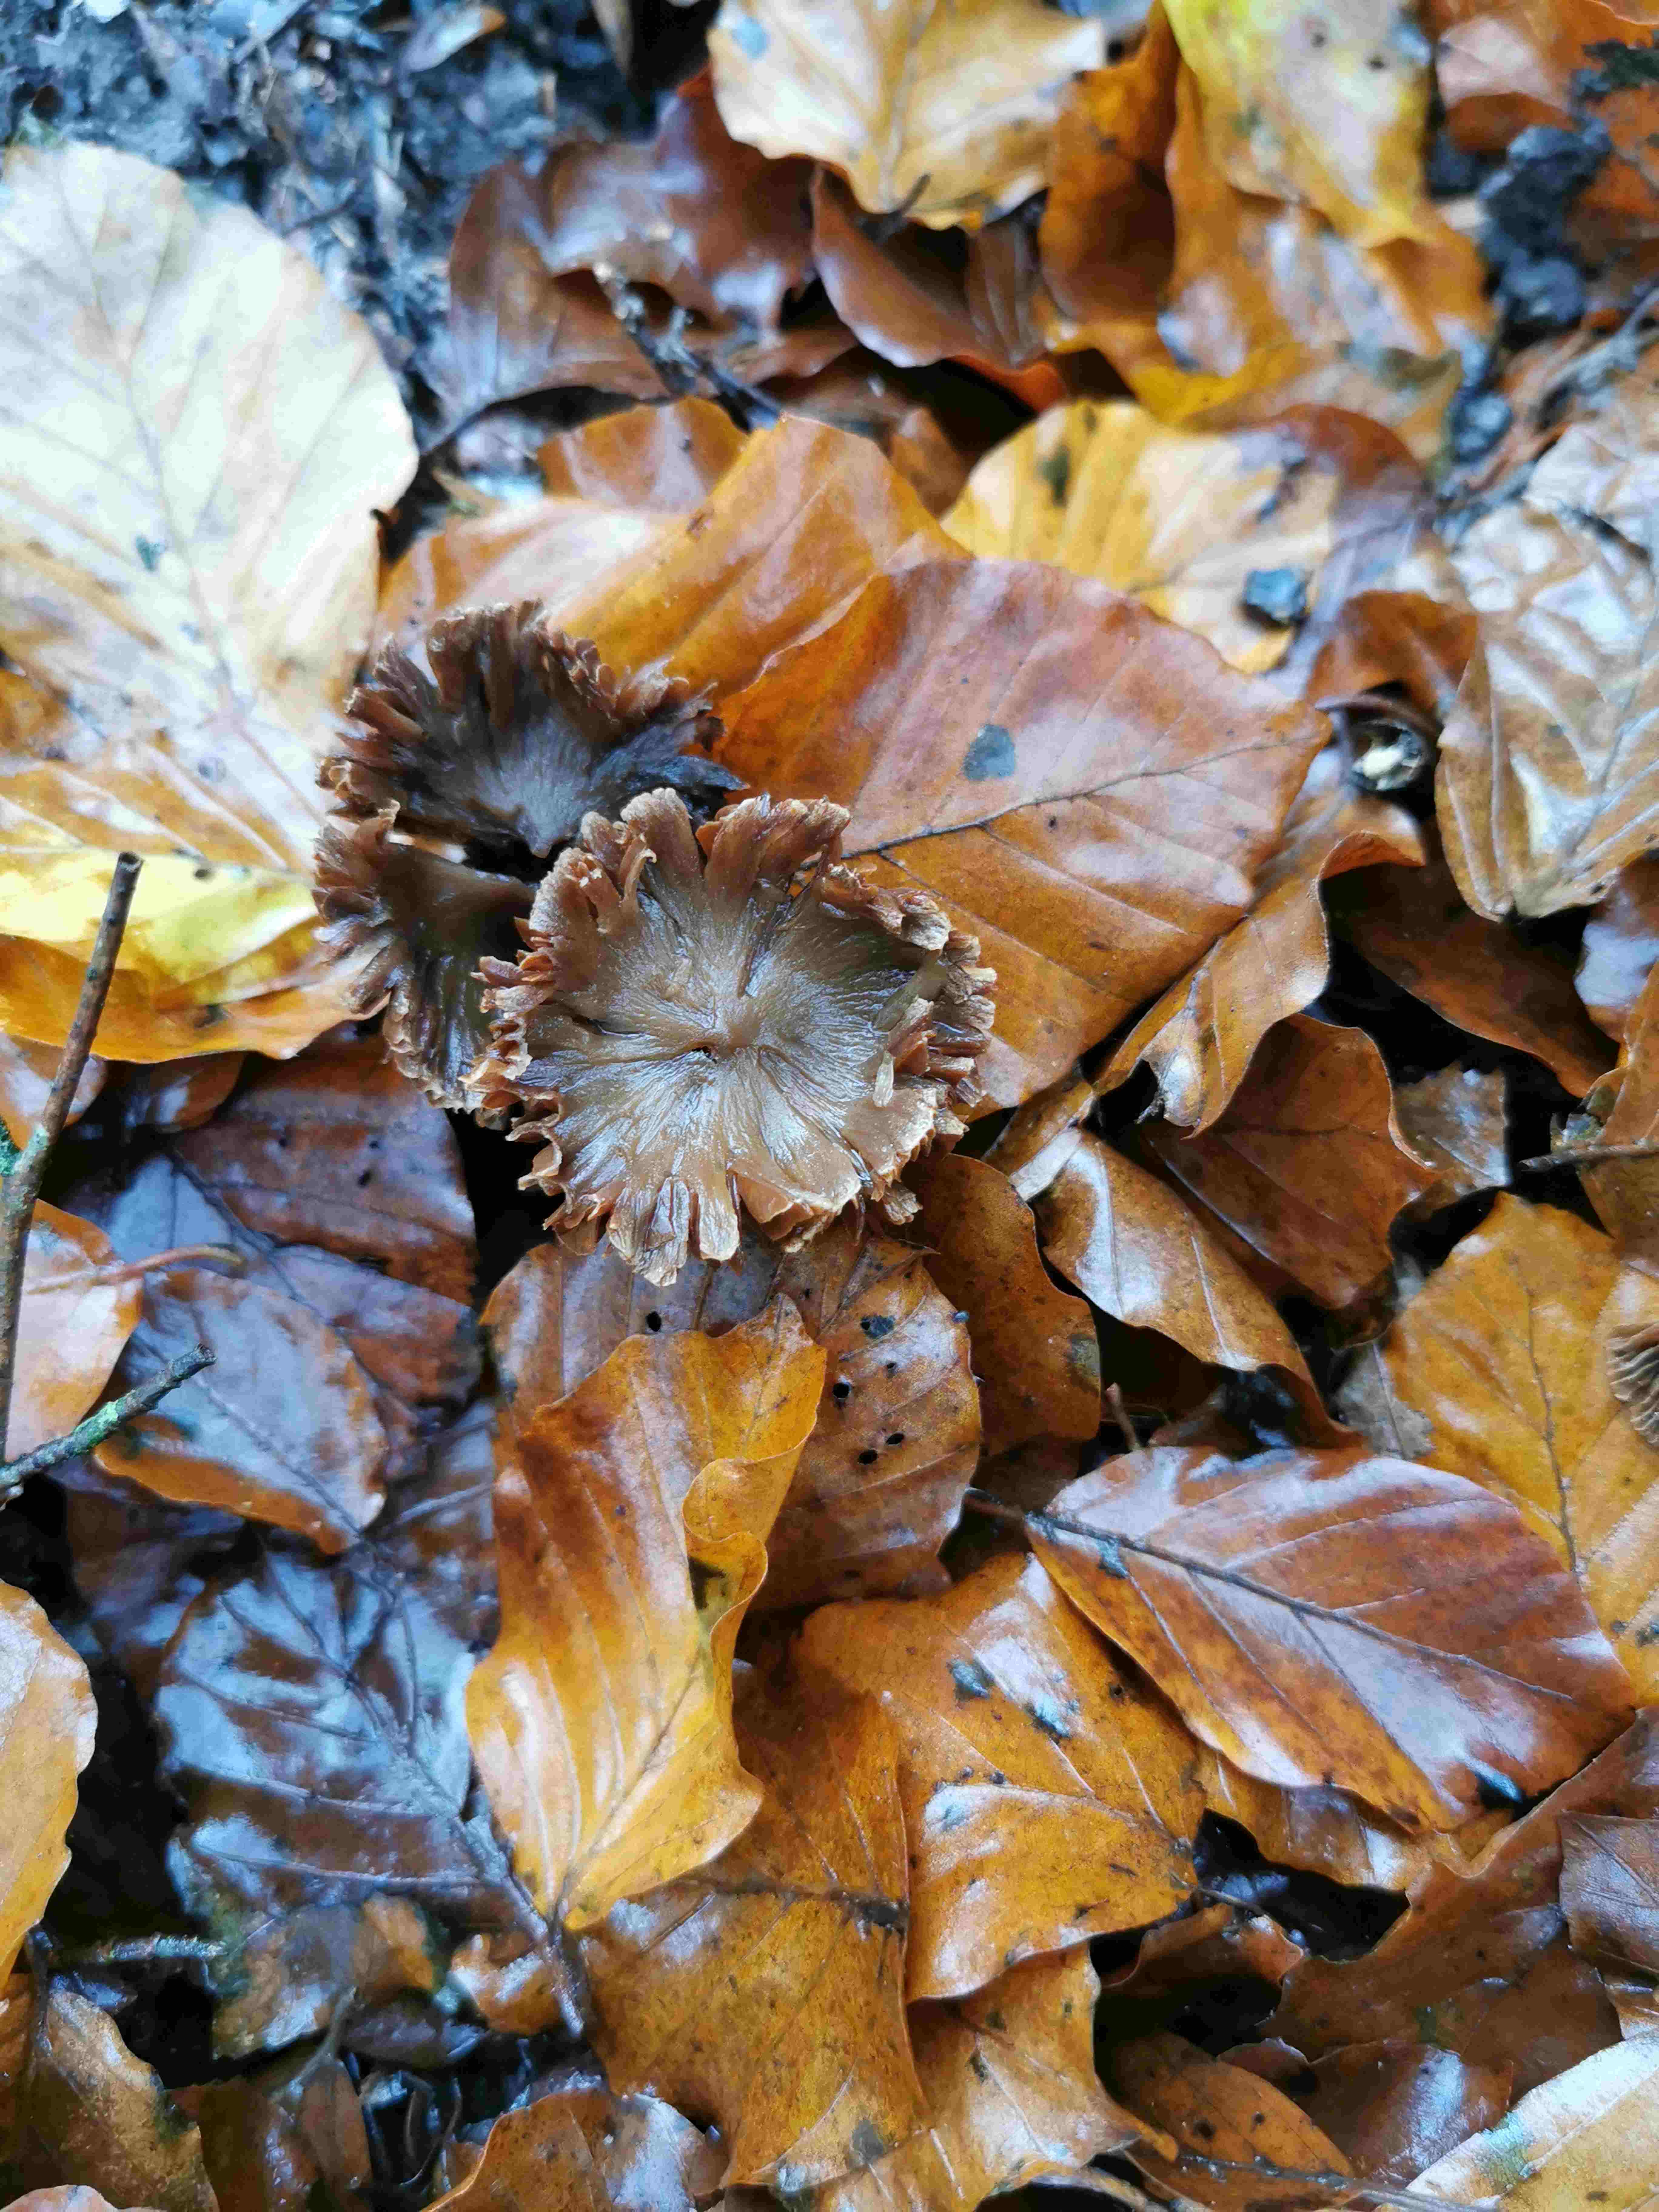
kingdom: Fungi
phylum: Basidiomycota
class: Agaricomycetes
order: Agaricales
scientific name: Agaricales
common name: champignonordenen
